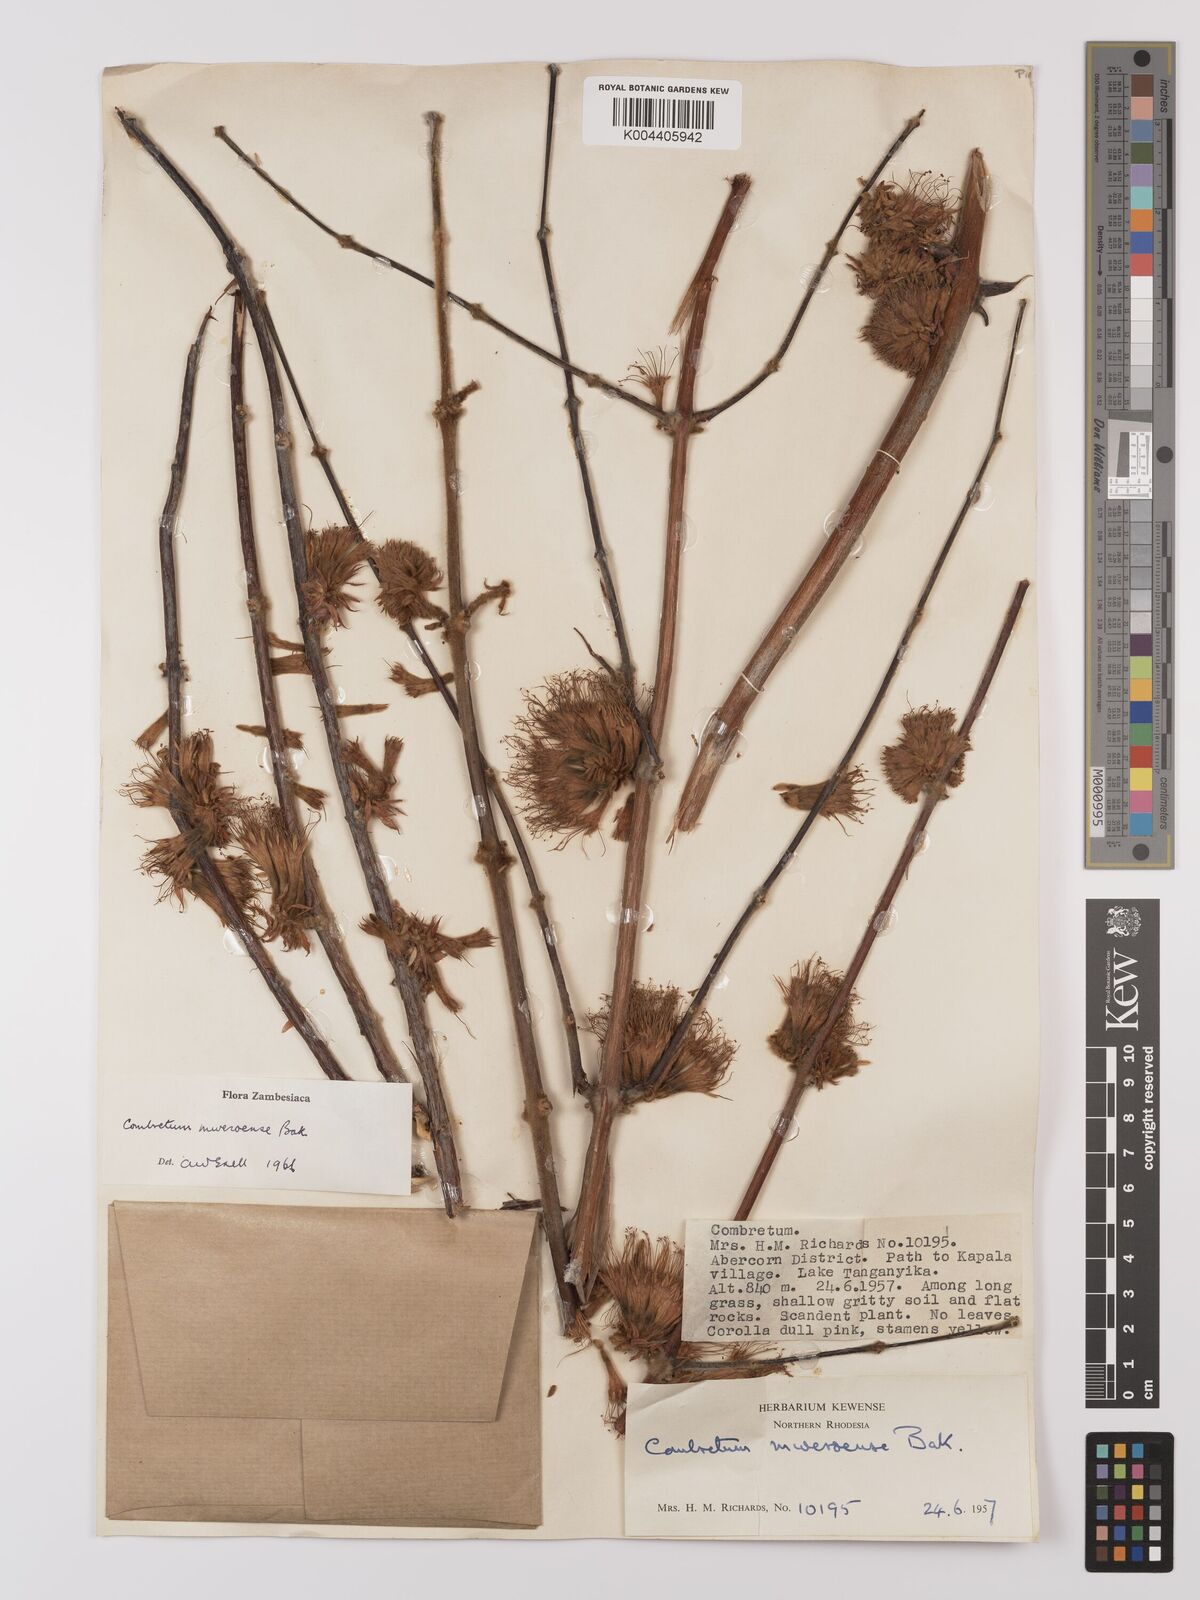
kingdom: Plantae
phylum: Tracheophyta
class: Magnoliopsida
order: Myrtales
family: Combretaceae
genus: Combretum
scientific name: Combretum mweroense
